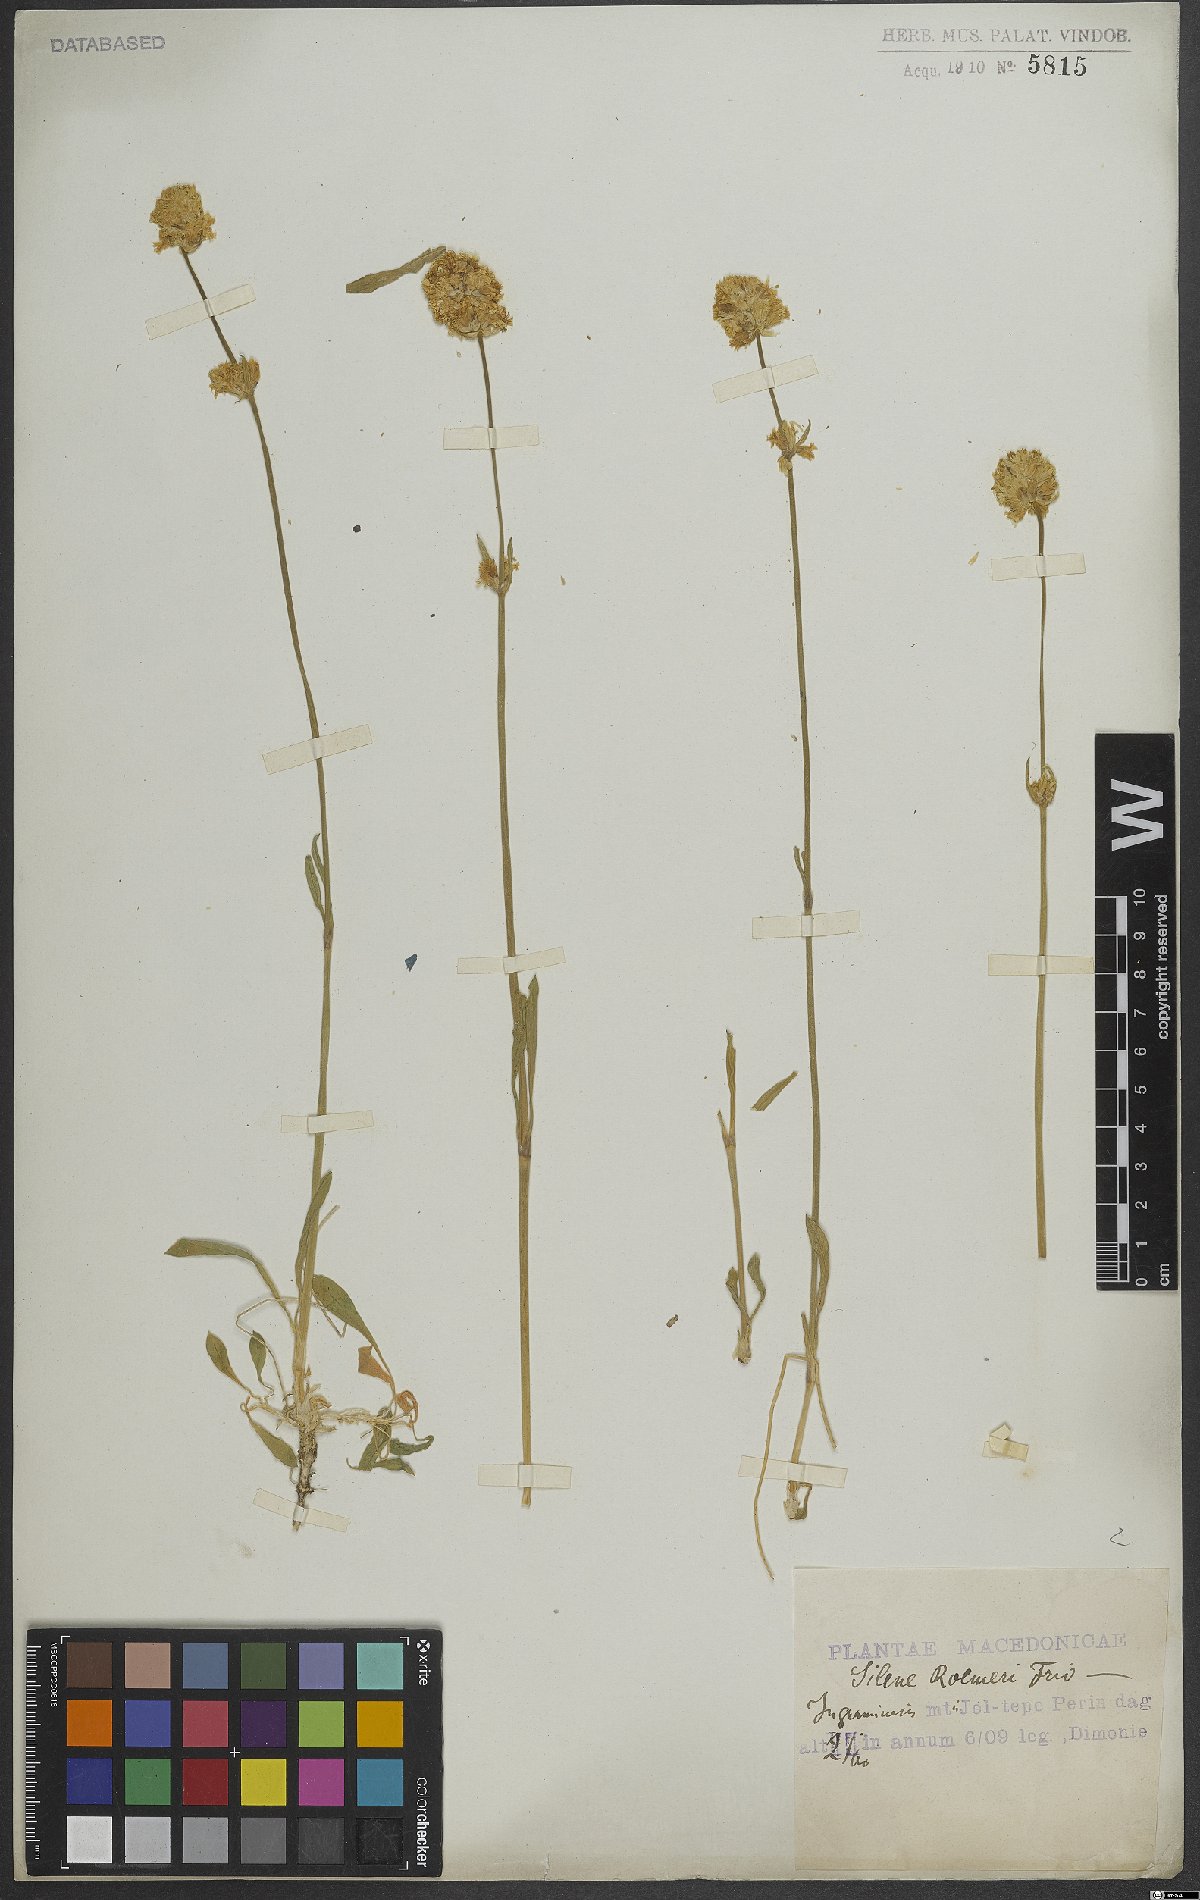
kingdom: Plantae
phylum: Tracheophyta
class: Magnoliopsida
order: Caryophyllales
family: Caryophyllaceae
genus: Silene
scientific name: Silene roemeri
